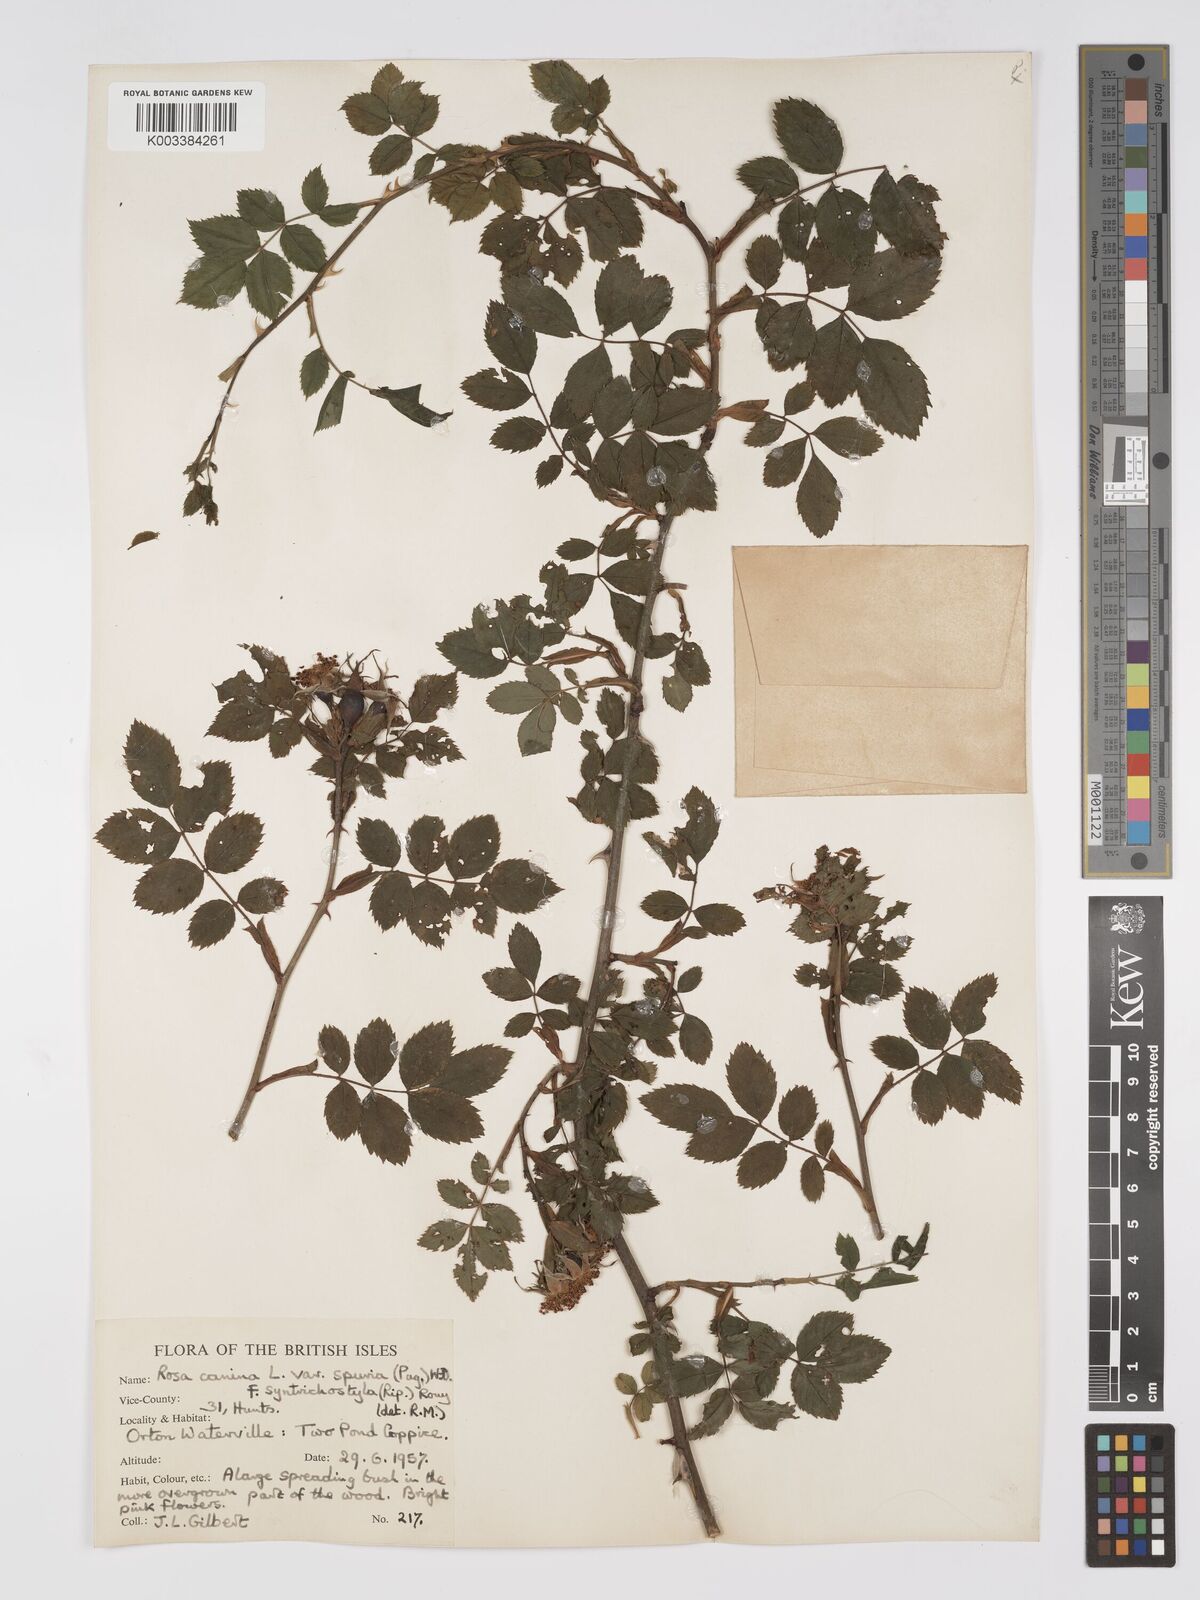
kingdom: Plantae
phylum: Tracheophyta
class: Magnoliopsida
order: Rosales
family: Rosaceae
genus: Rosa
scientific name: Rosa canina
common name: Dog rose
